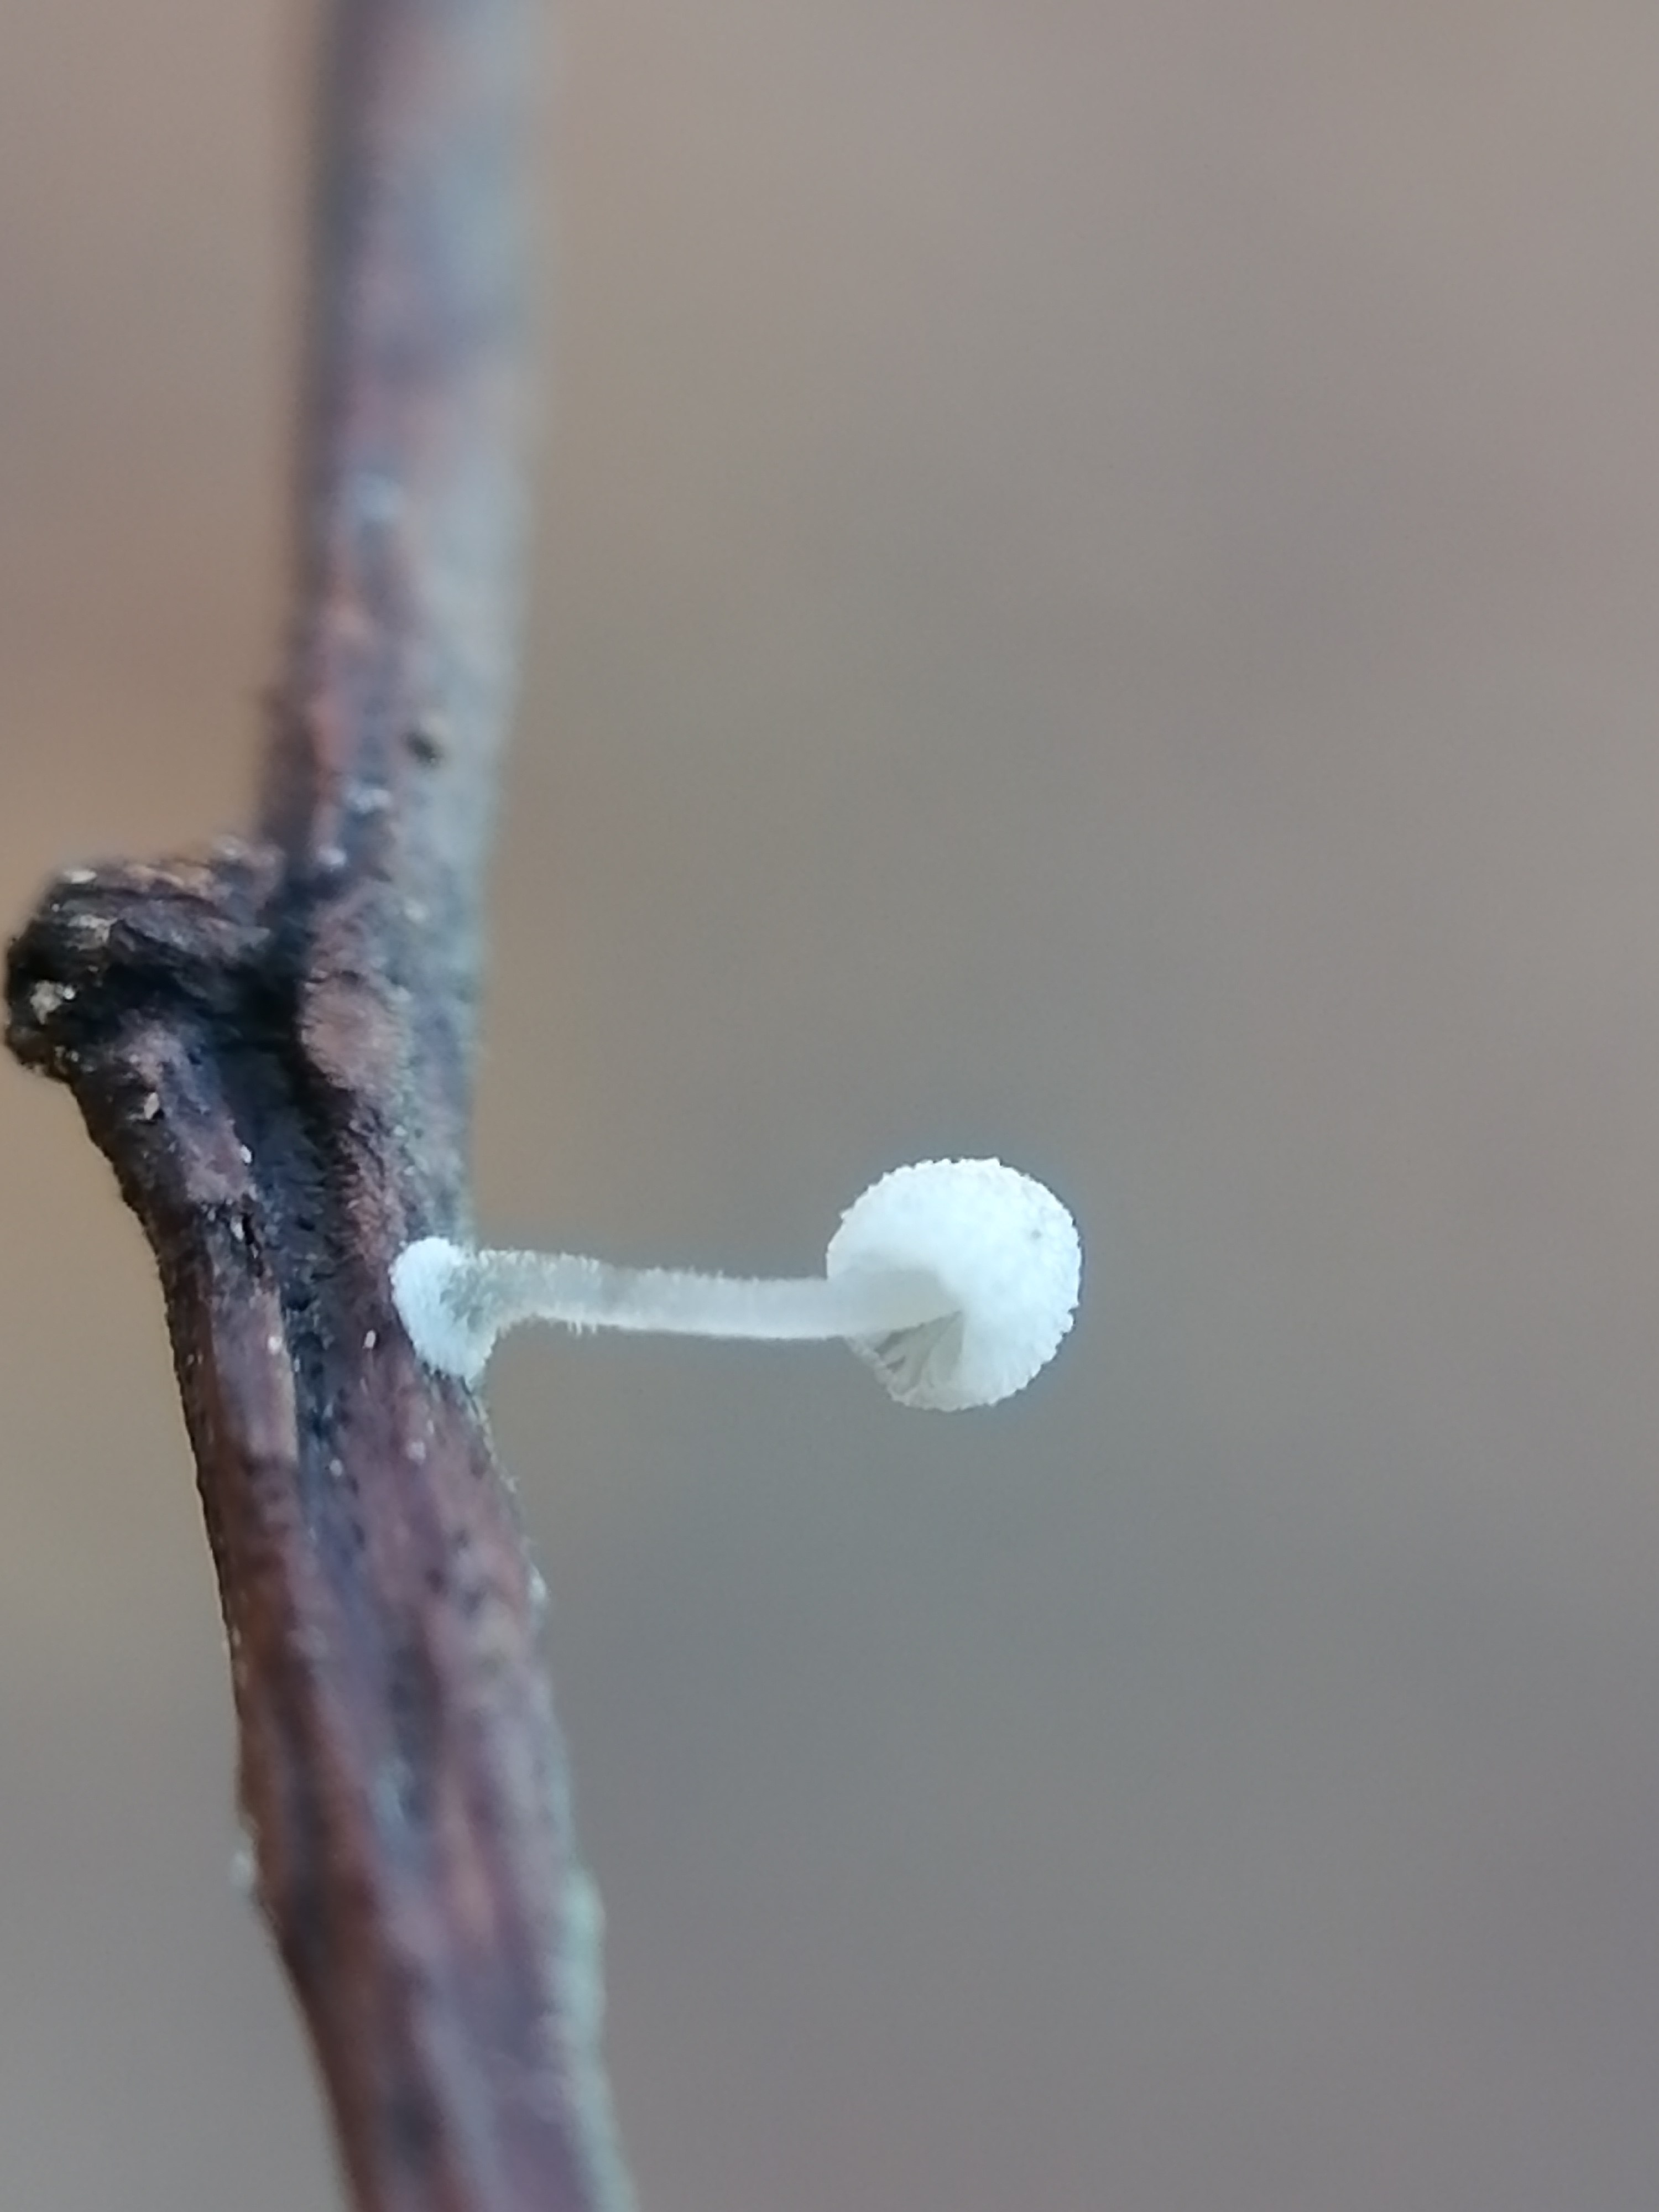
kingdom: Fungi
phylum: Basidiomycota
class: Agaricomycetes
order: Agaricales
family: Mycenaceae
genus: Mycena
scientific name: Mycena
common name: huesvamp
